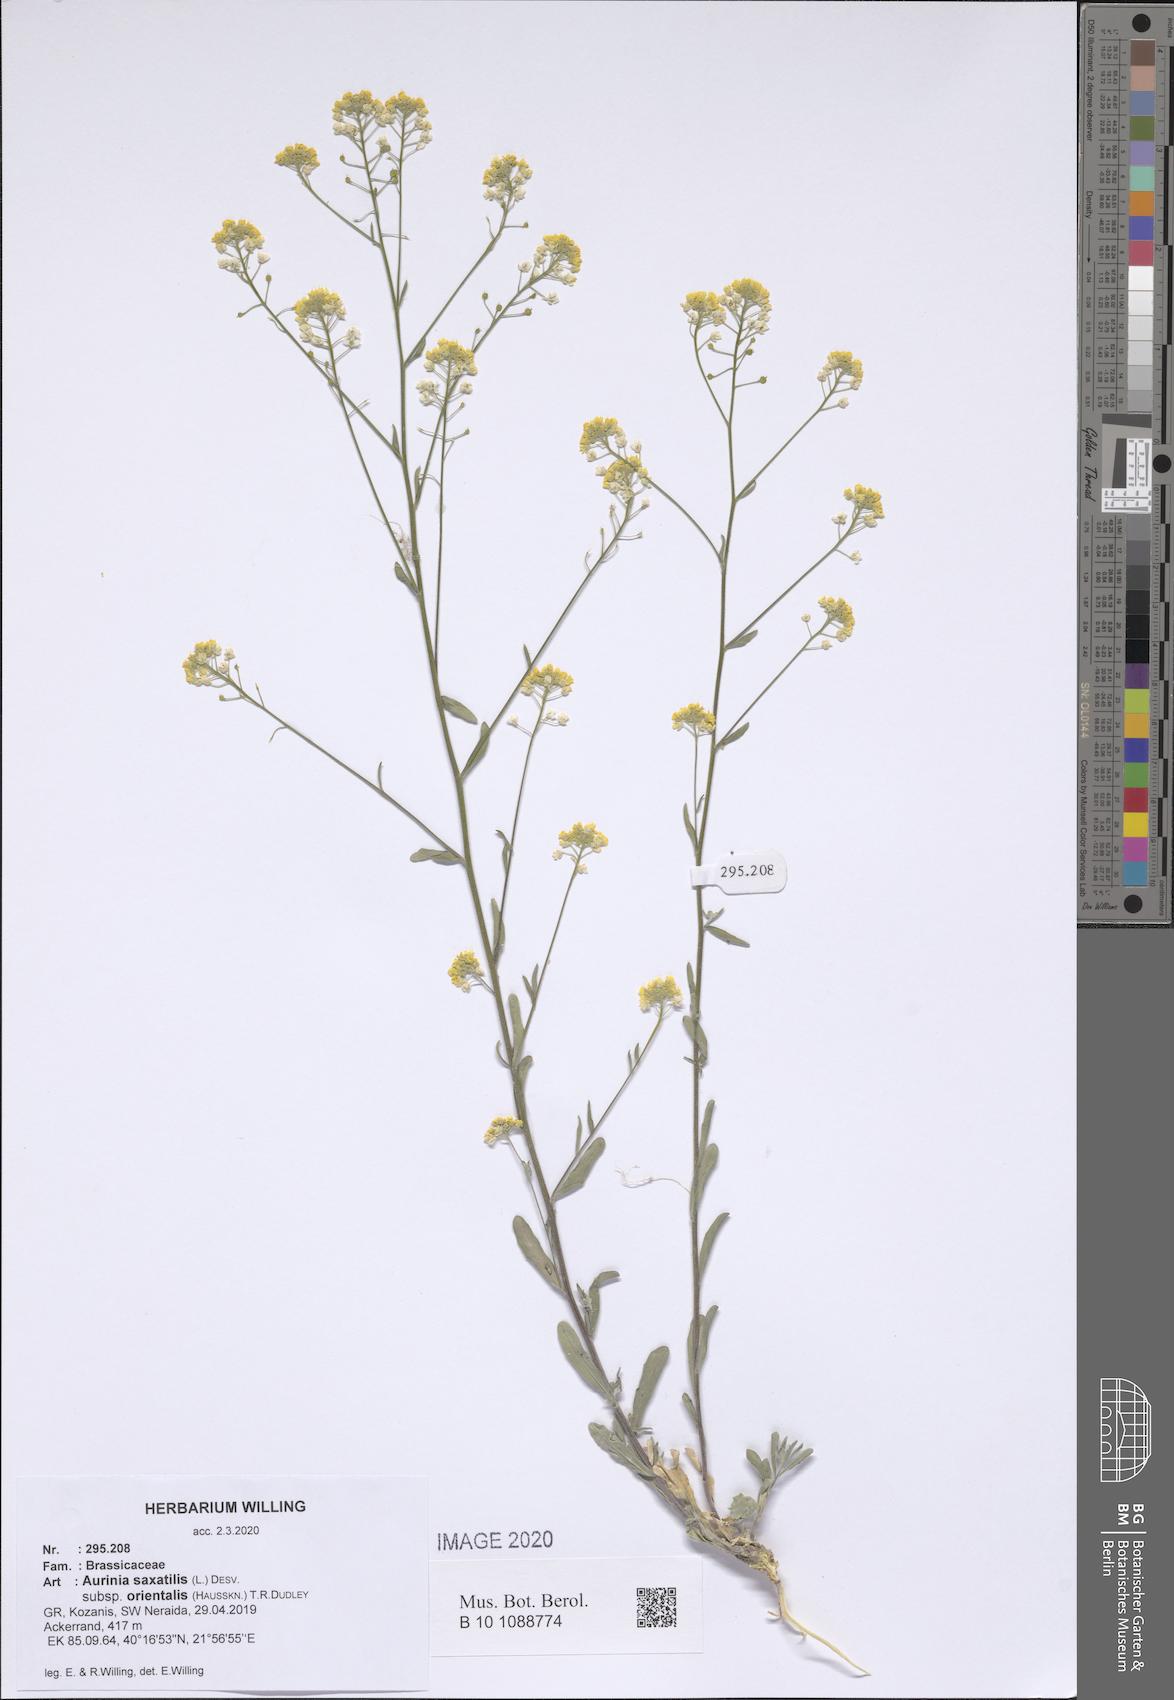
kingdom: Plantae
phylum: Tracheophyta
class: Magnoliopsida
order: Brassicales
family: Brassicaceae
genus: Aurinia
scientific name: Aurinia saxatilis
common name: Golden-tuft alyssum
